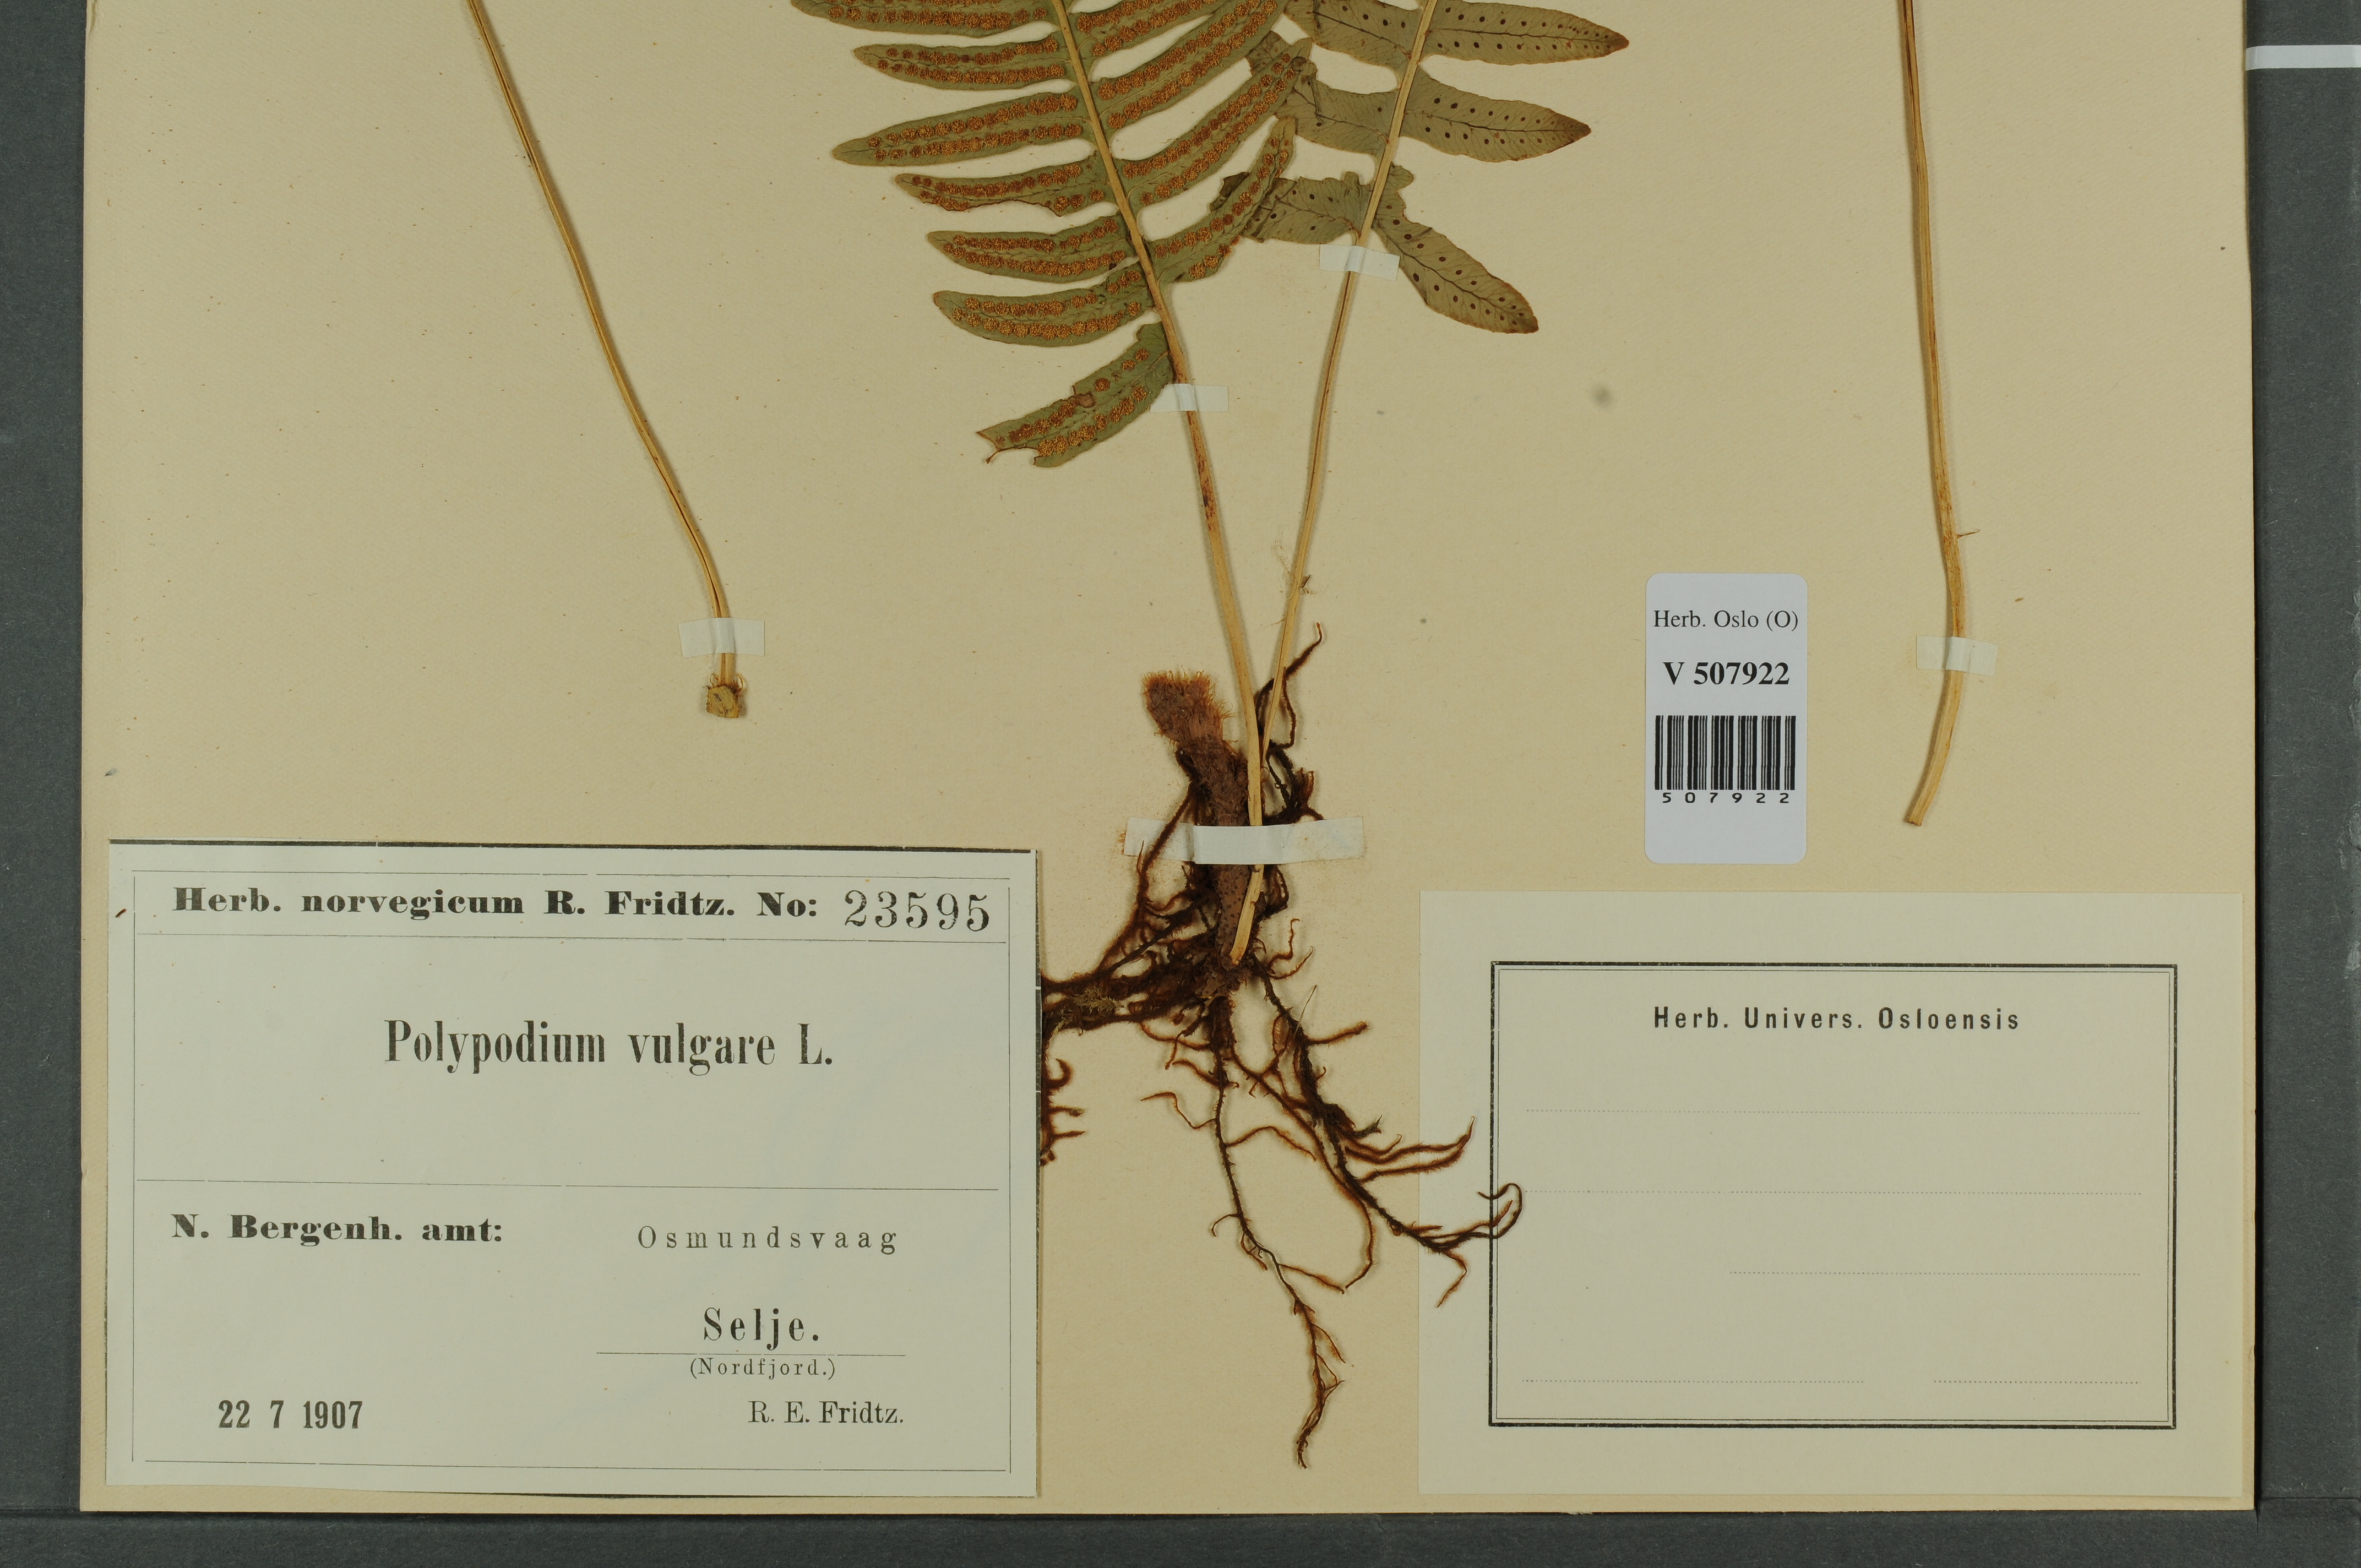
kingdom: Plantae
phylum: Tracheophyta
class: Polypodiopsida
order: Polypodiales
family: Polypodiaceae
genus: Polypodium
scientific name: Polypodium vulgare
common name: Common polypody
